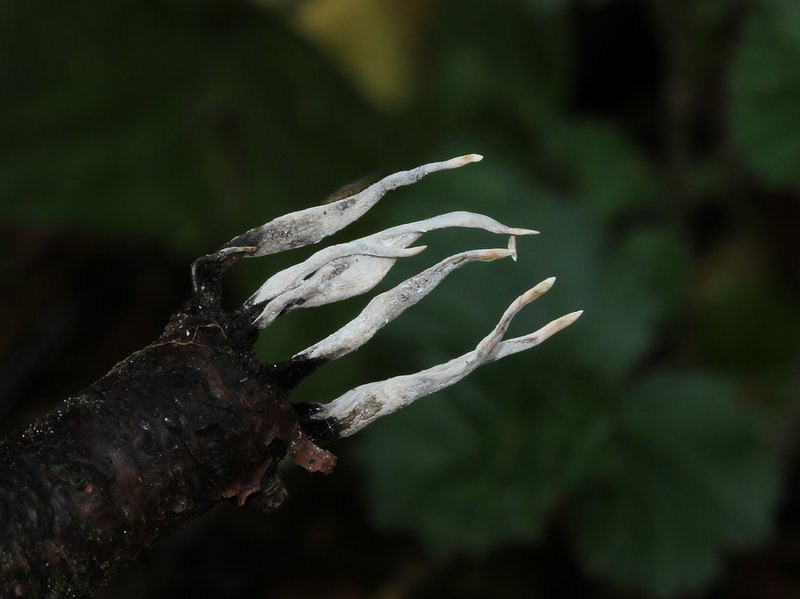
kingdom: Fungi
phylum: Ascomycota
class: Sordariomycetes
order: Xylariales
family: Xylariaceae
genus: Xylaria
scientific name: Xylaria hypoxylon
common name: grenet stødsvamp
